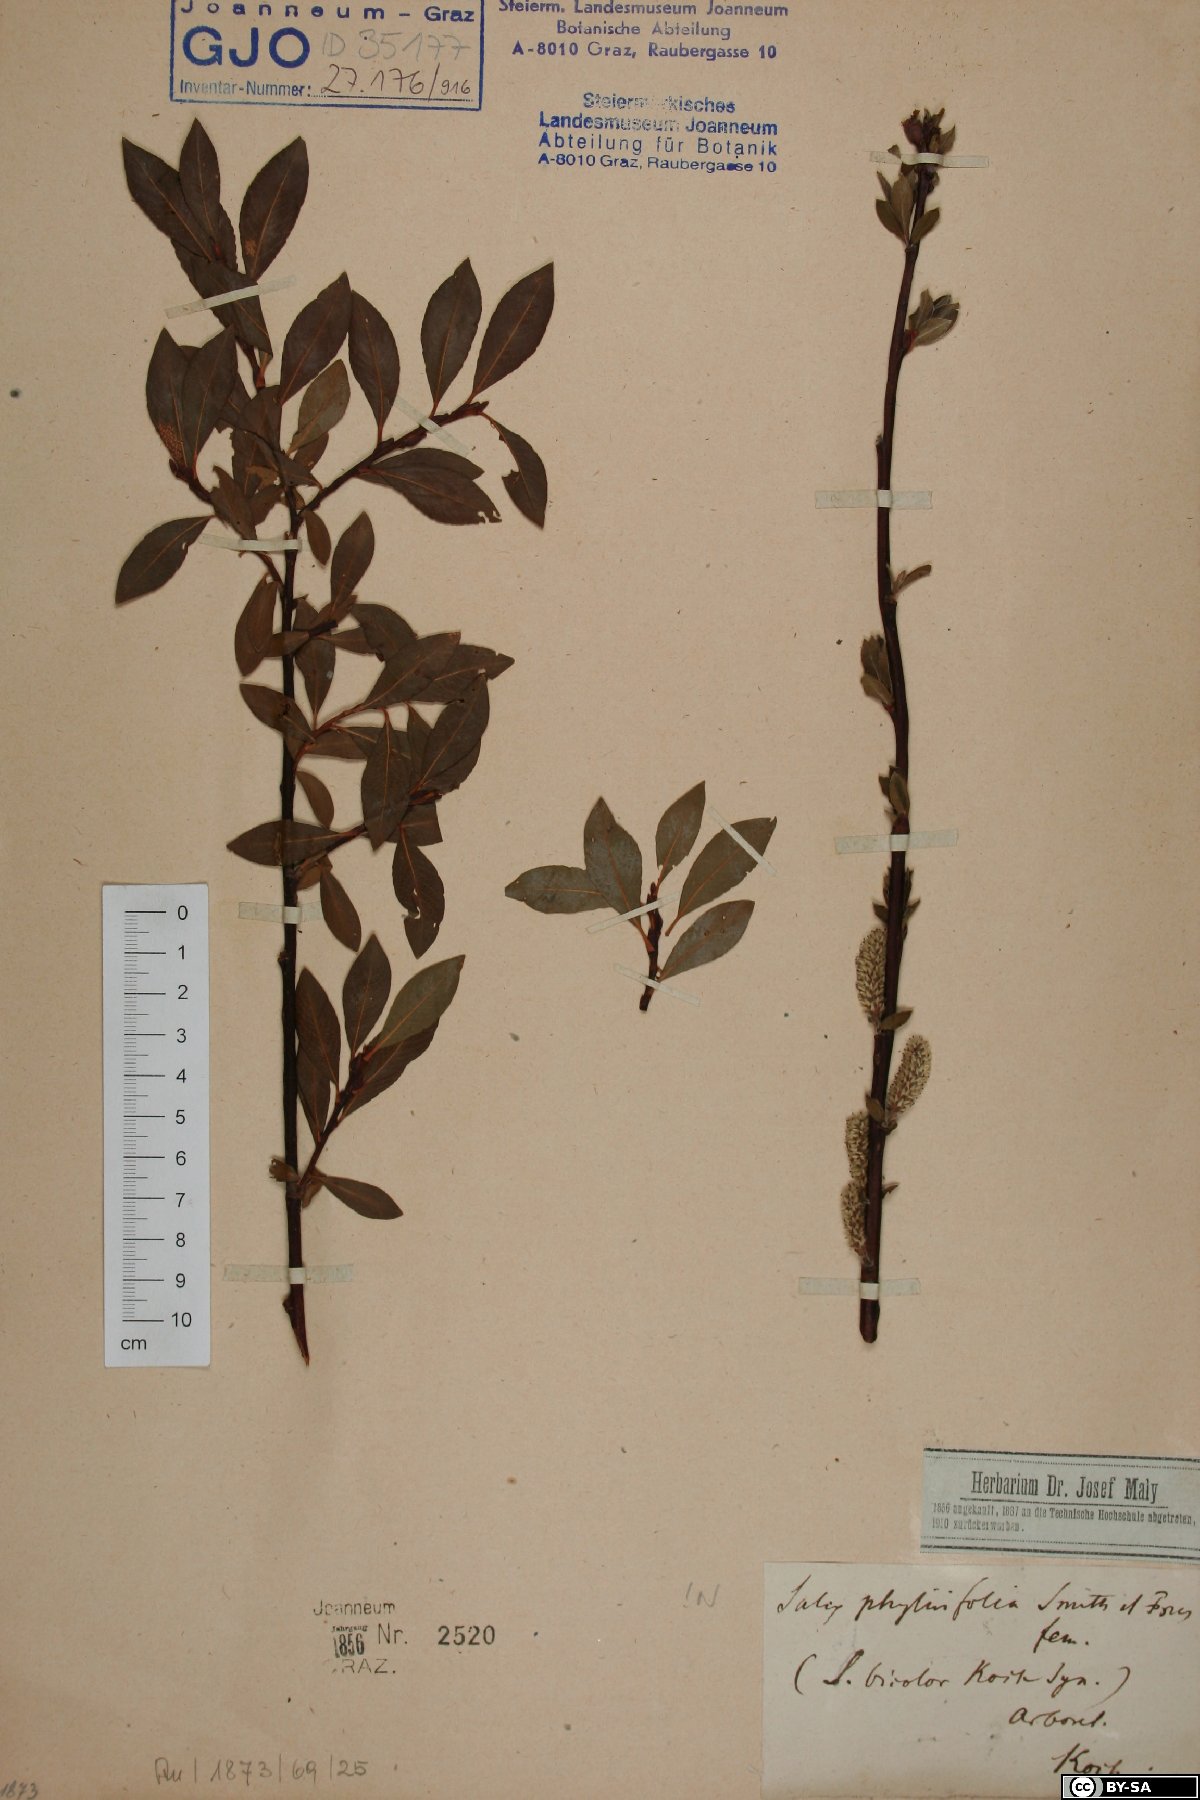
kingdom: Plantae
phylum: Tracheophyta
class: Magnoliopsida
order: Malpighiales
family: Salicaceae
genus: Salix
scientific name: Salix phylicifolia
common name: Tea-leaved willow
